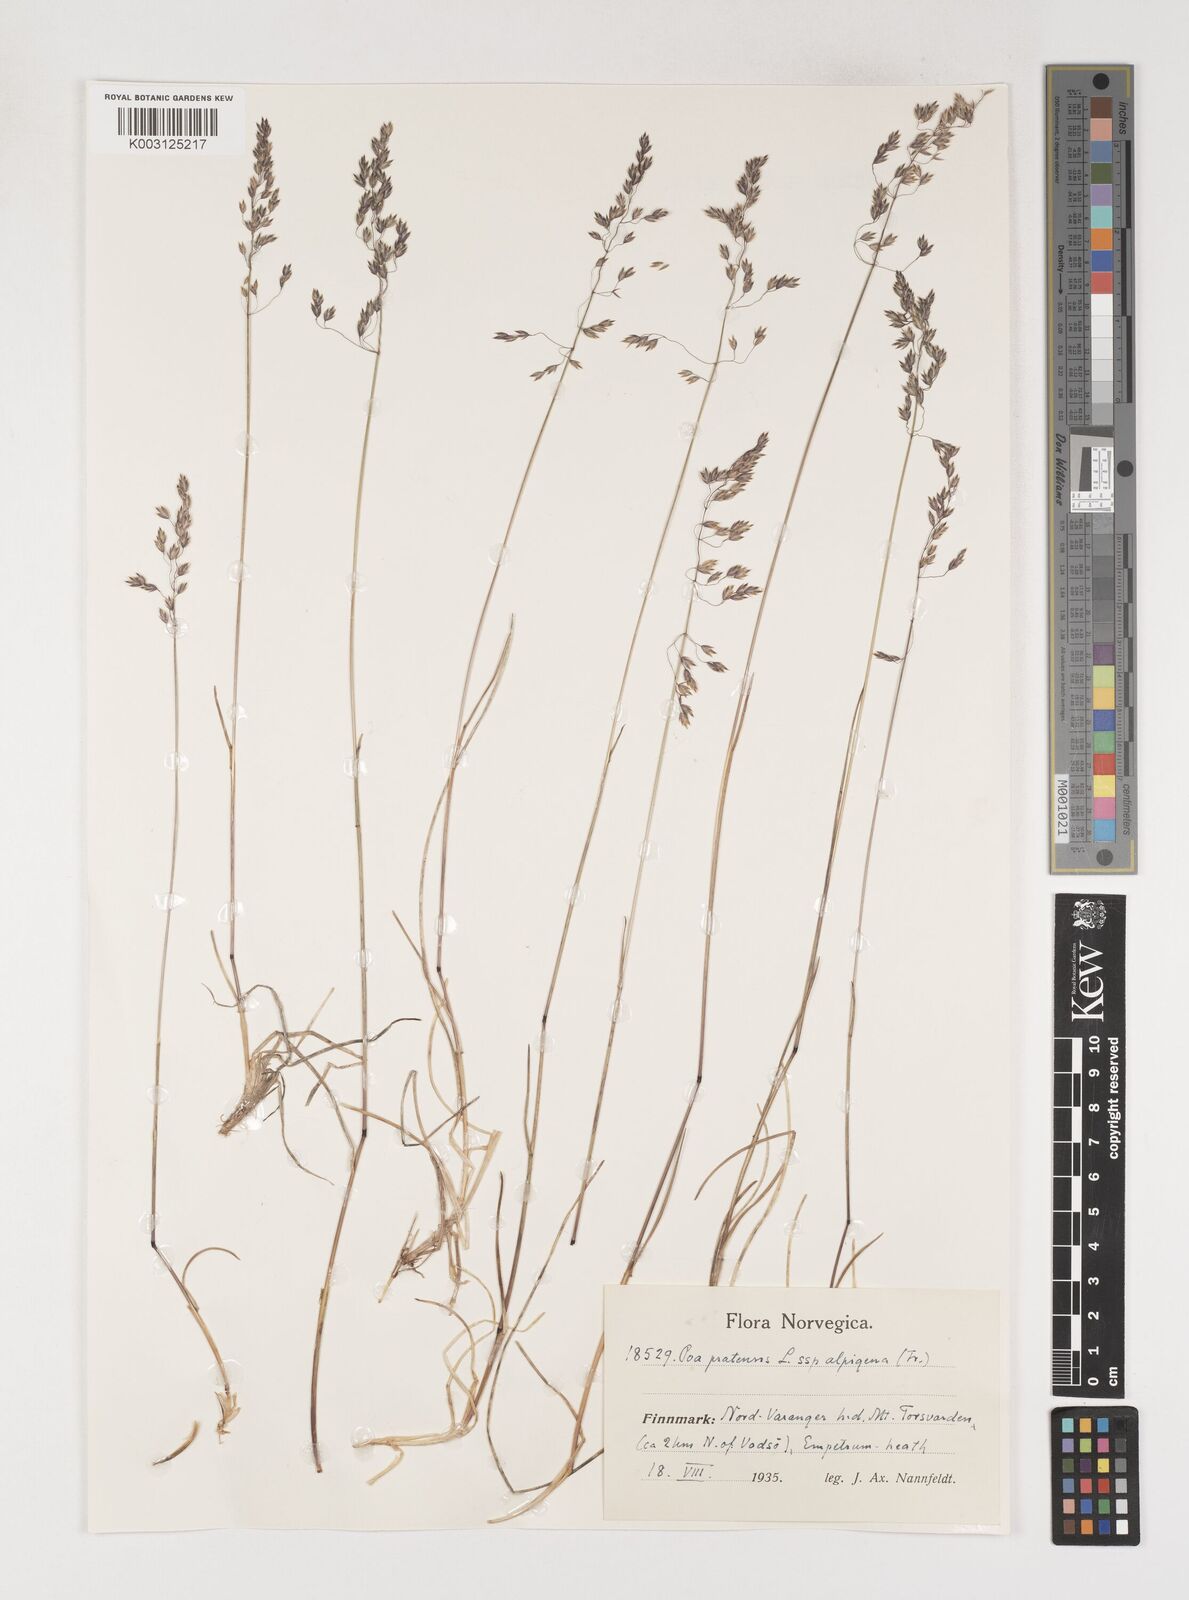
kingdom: Plantae
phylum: Tracheophyta
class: Liliopsida
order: Poales
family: Poaceae
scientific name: Poaceae
